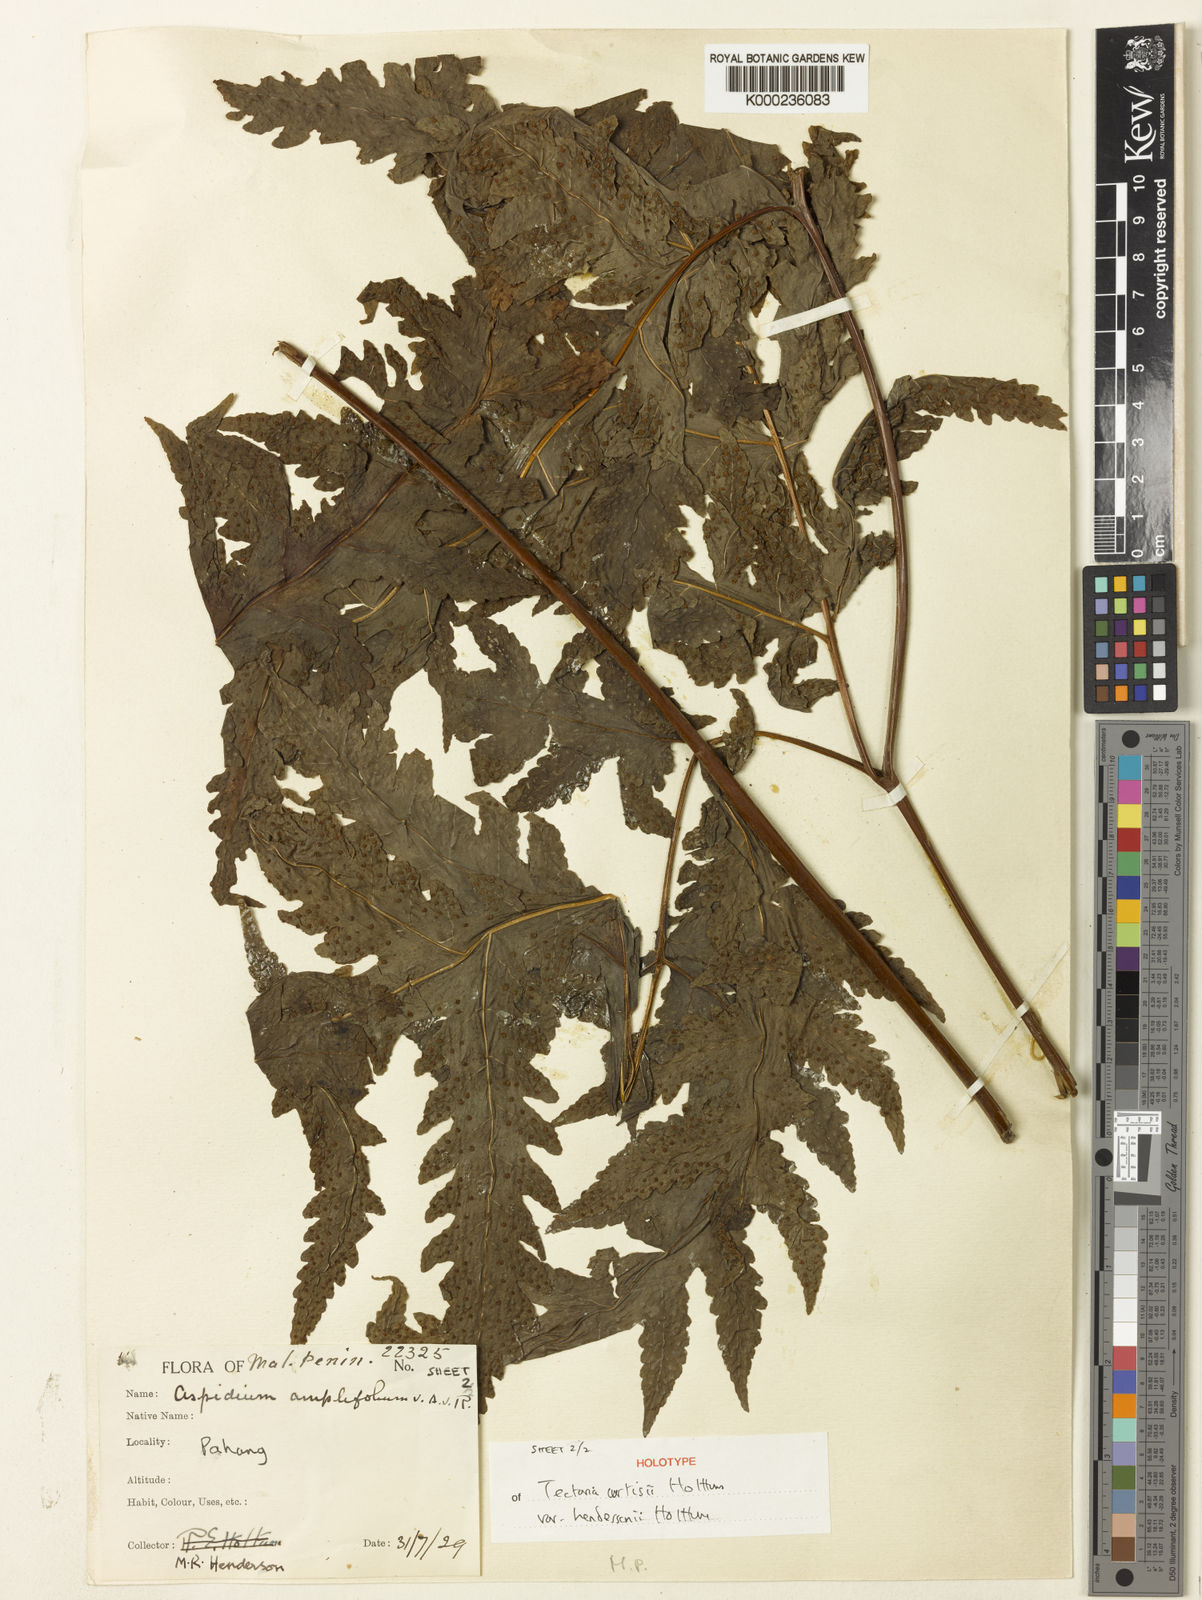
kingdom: Plantae
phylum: Tracheophyta
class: Polypodiopsida
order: Polypodiales
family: Tectariaceae
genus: Tectaria
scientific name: Tectaria curtisii
